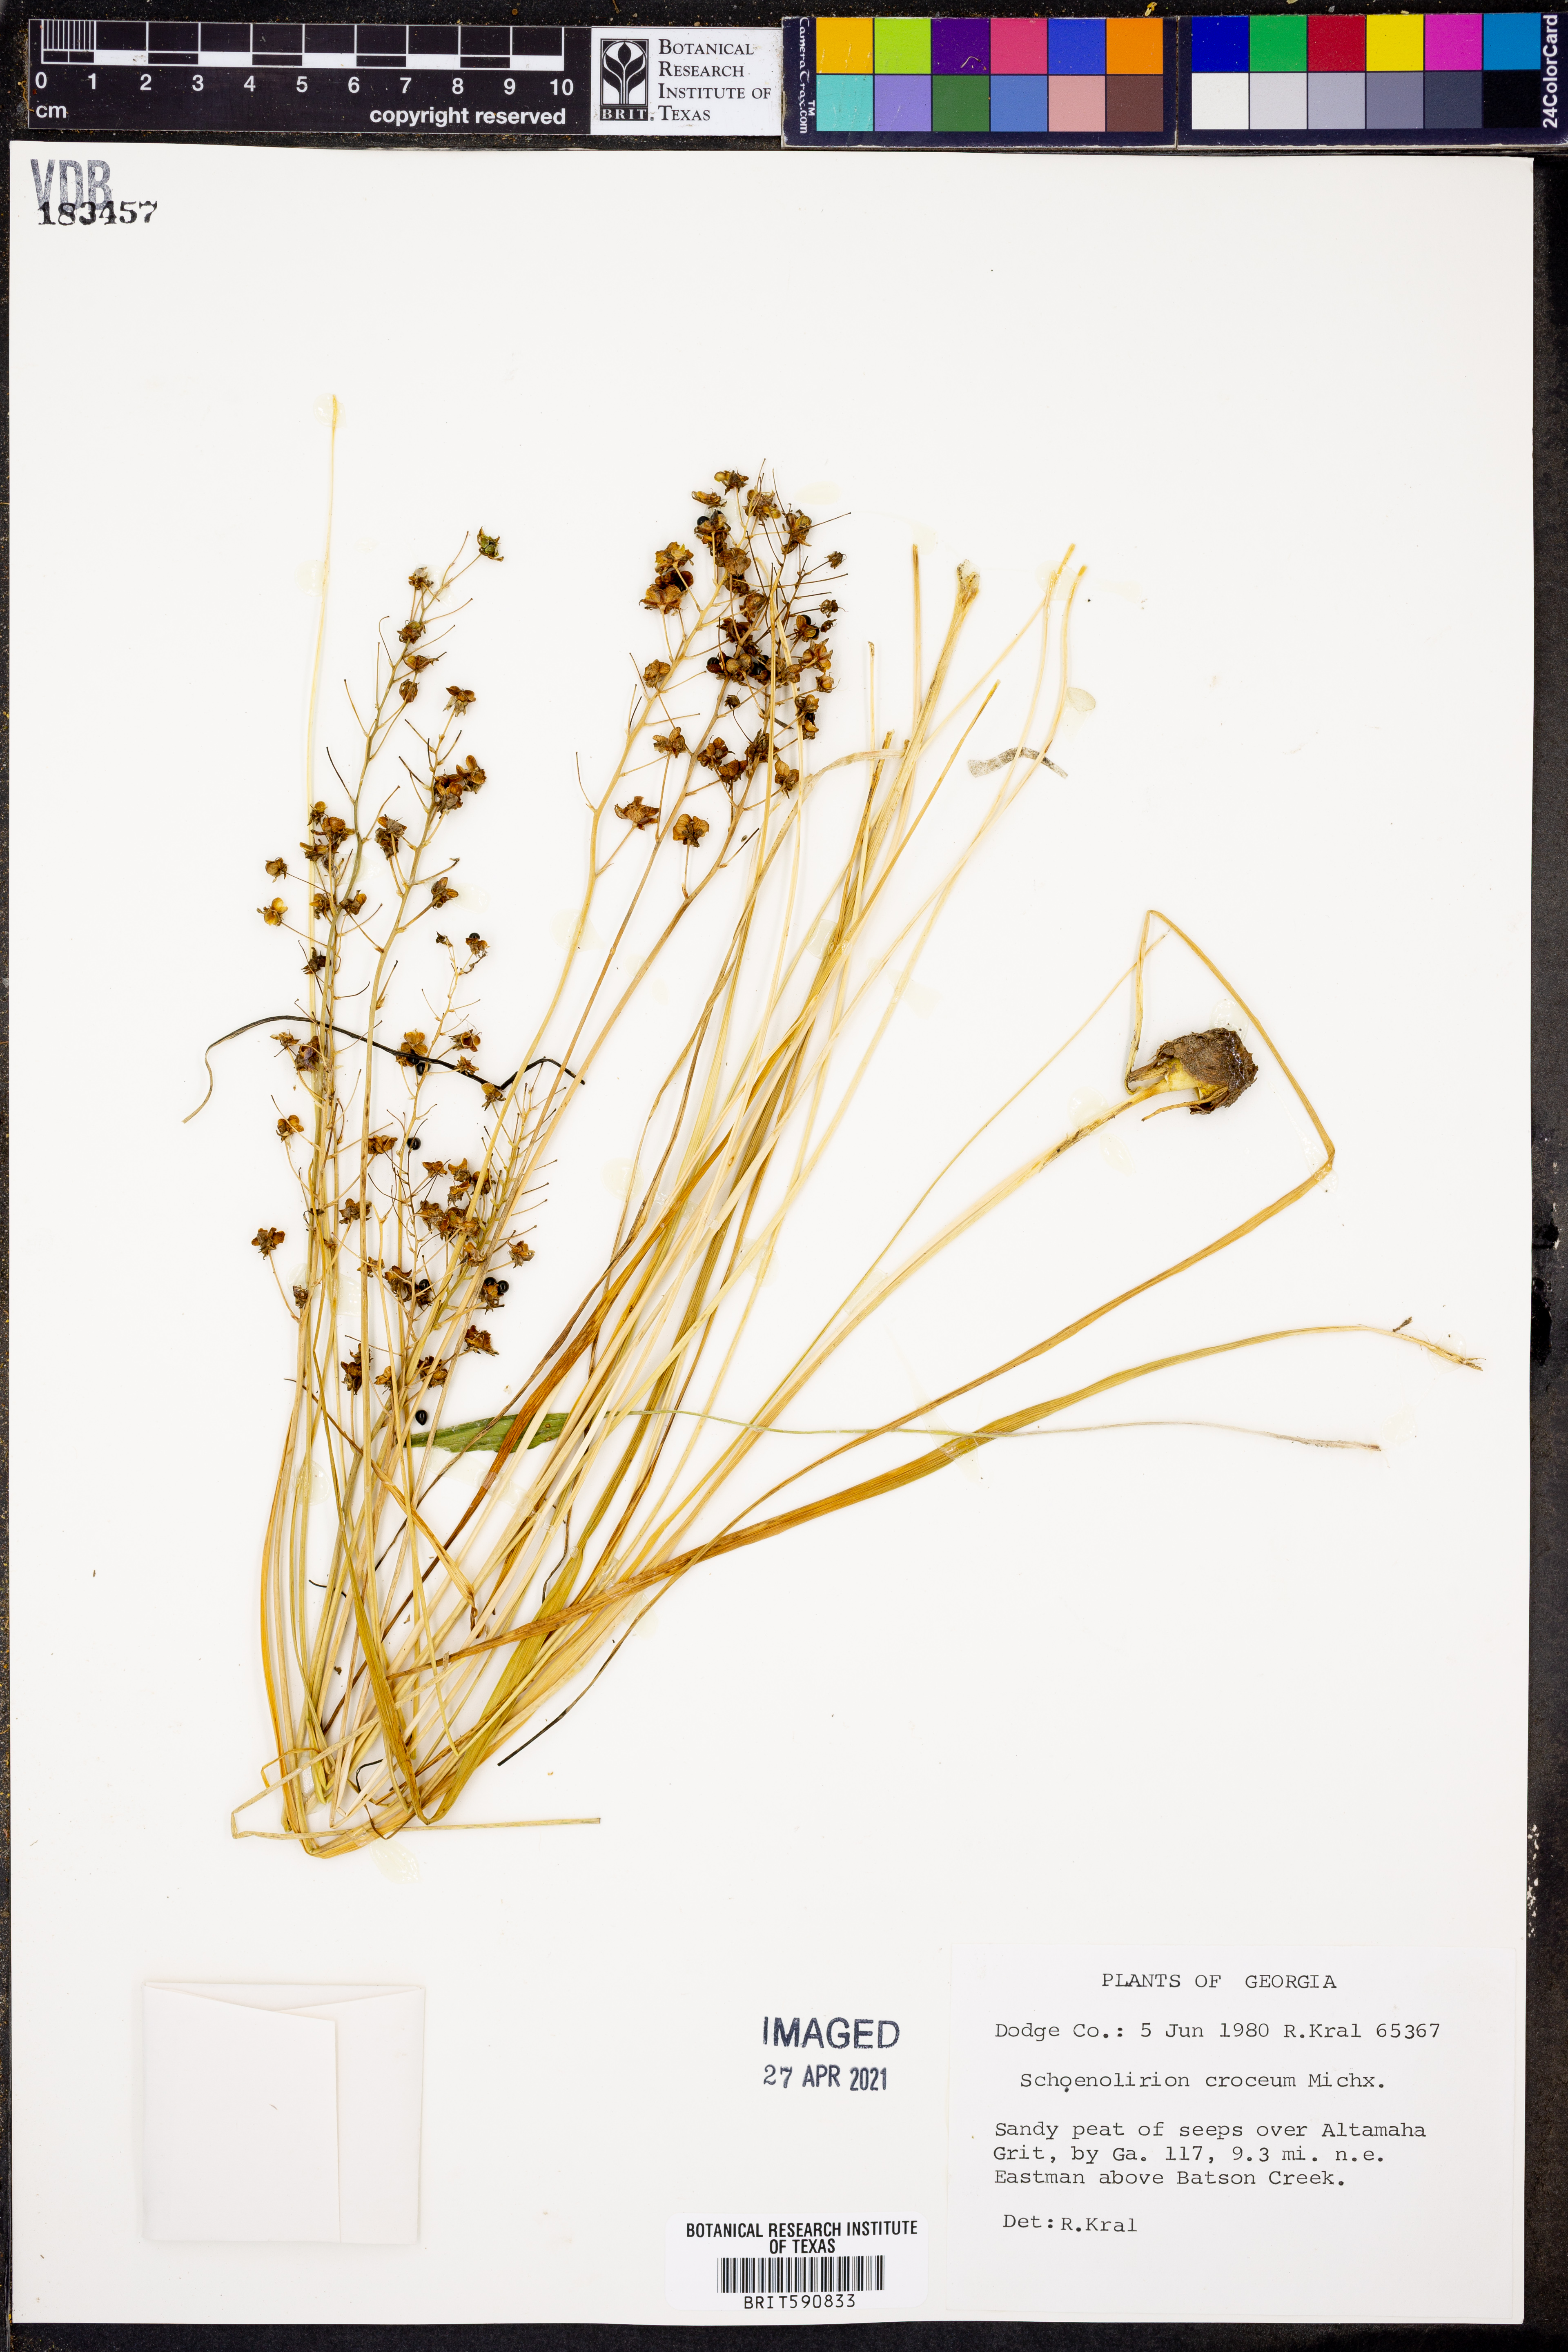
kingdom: Plantae
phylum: Tracheophyta
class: Liliopsida
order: Asparagales
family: Asparagaceae
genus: Schoenolirion
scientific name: Schoenolirion croceum
